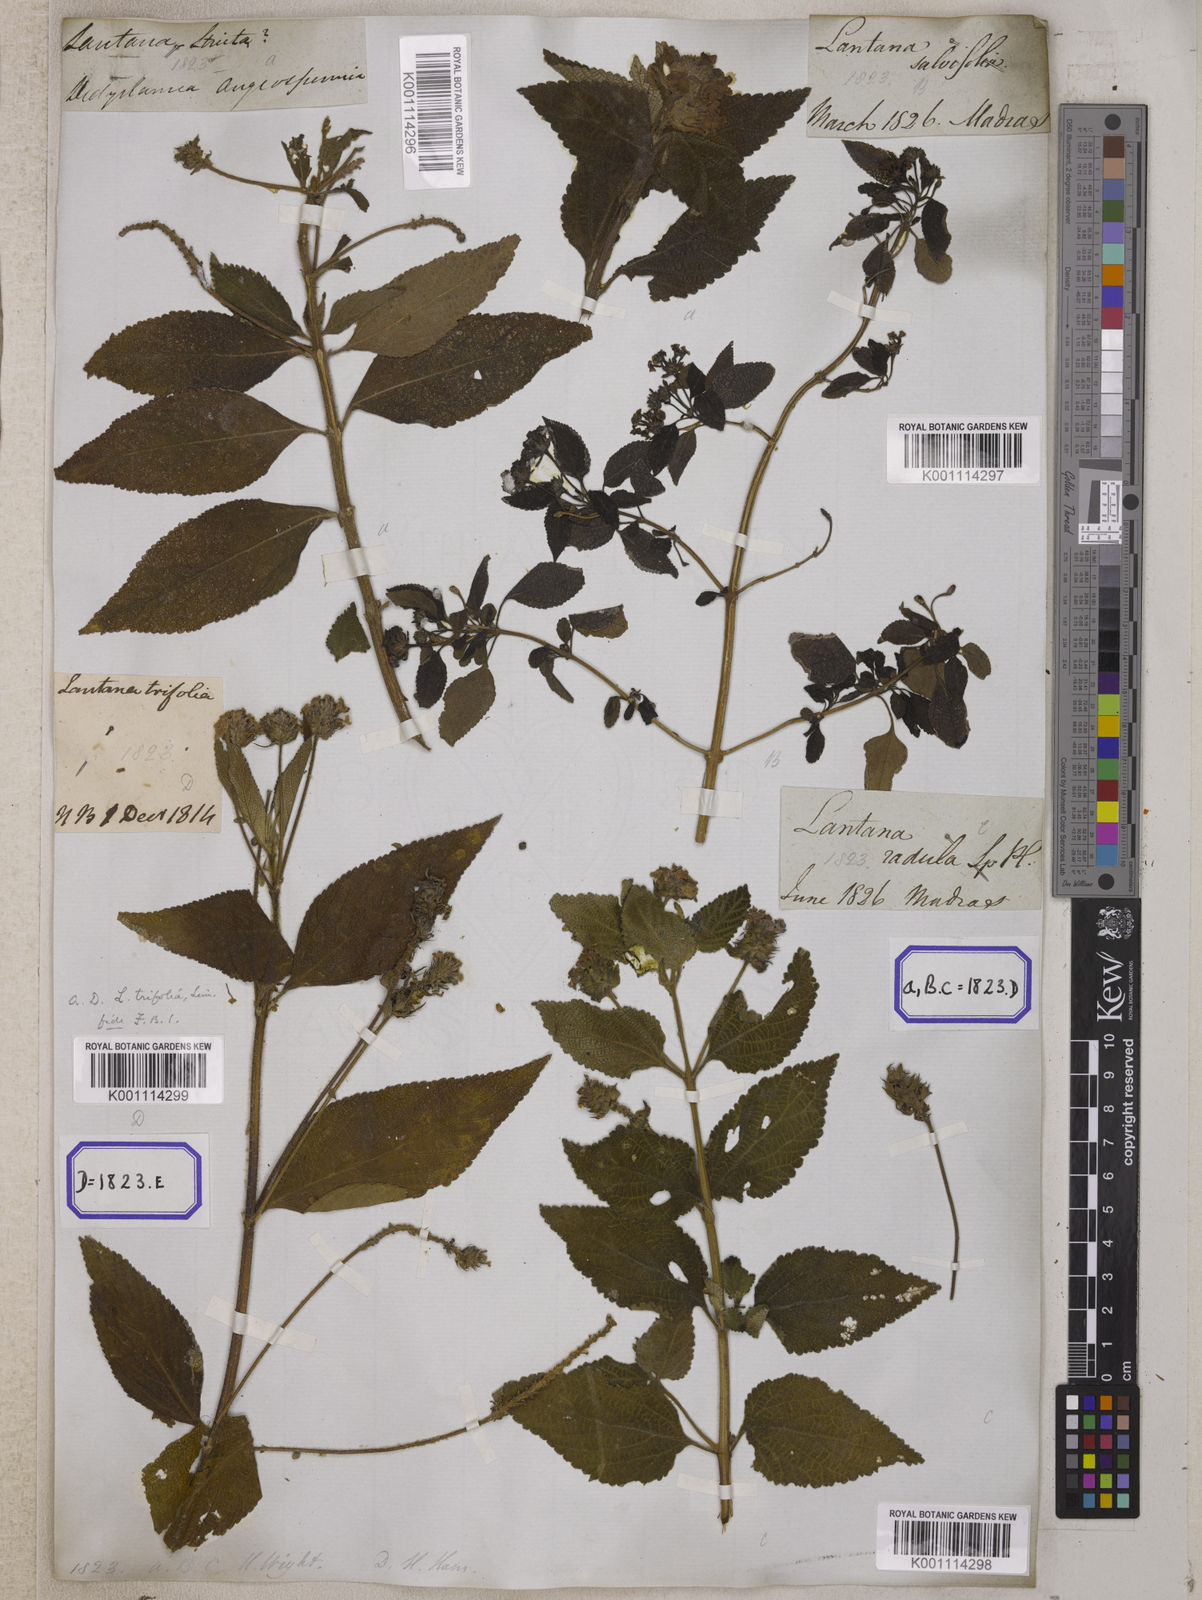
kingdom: Plantae
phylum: Tracheophyta
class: Magnoliopsida
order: Lamiales
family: Verbenaceae
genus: Lantana
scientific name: Lantana indica
